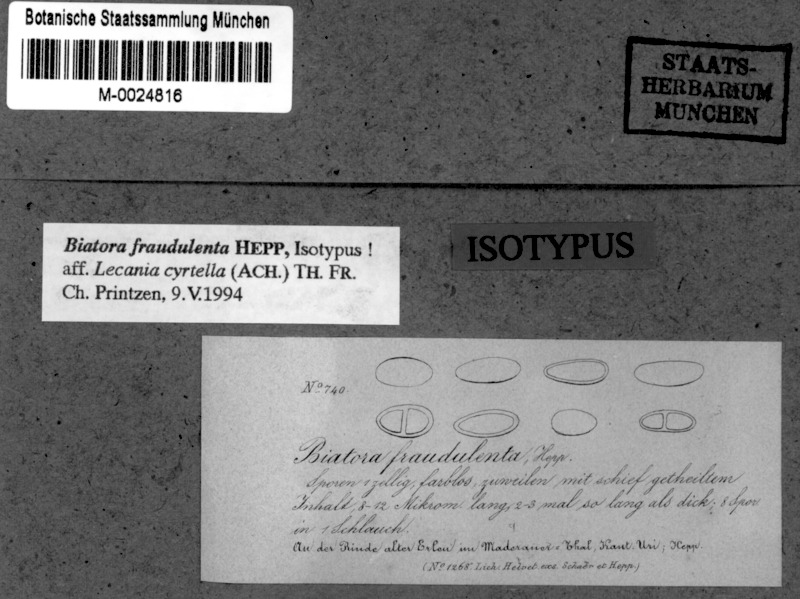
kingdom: Fungi
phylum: Ascomycota
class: Lecanoromycetes
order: Lecanorales
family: Ramalinaceae
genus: Biatora
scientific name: Biatora
